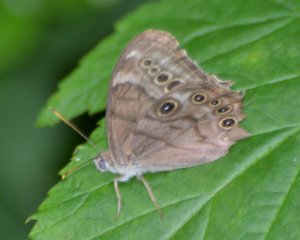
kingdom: Animalia
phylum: Arthropoda
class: Insecta
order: Lepidoptera
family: Nymphalidae
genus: Lethe
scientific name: Lethe anthedon
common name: Northern Pearly-Eye
